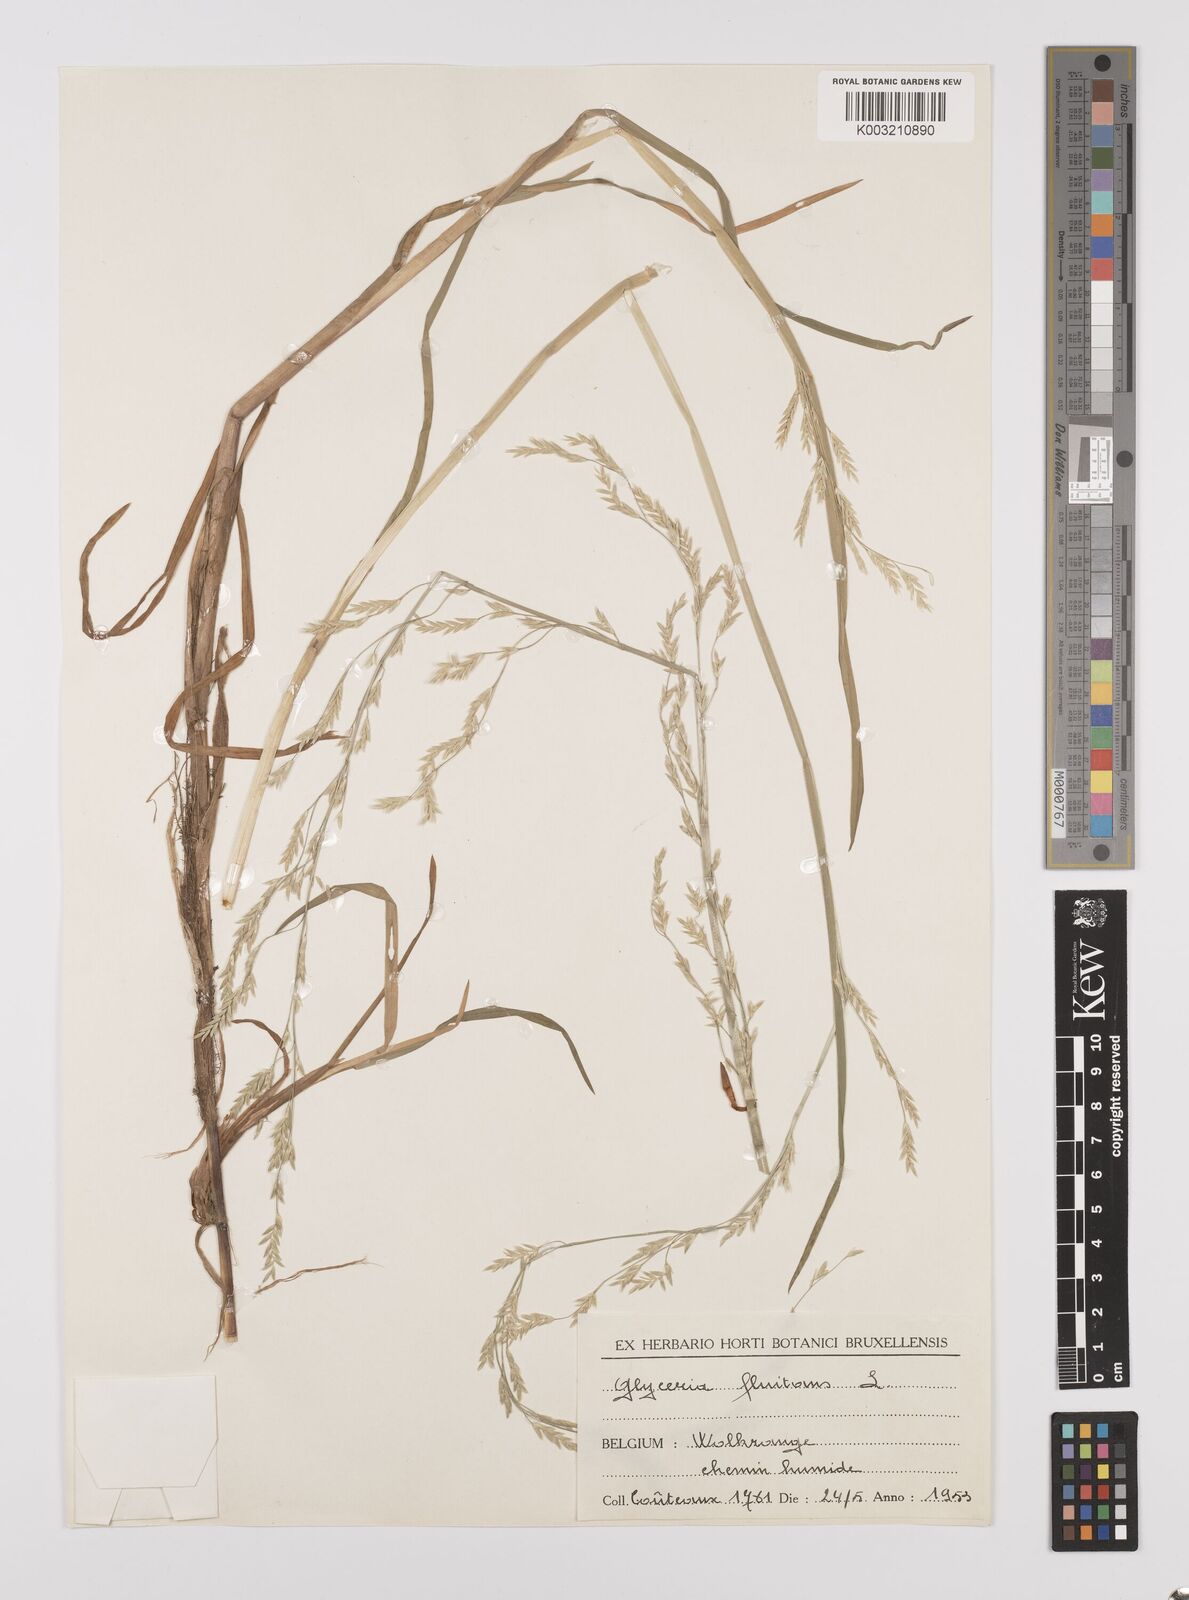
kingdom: Plantae
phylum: Tracheophyta
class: Liliopsida
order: Poales
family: Poaceae
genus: Glyceria
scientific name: Glyceria fluitans
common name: Floating sweet-grass
